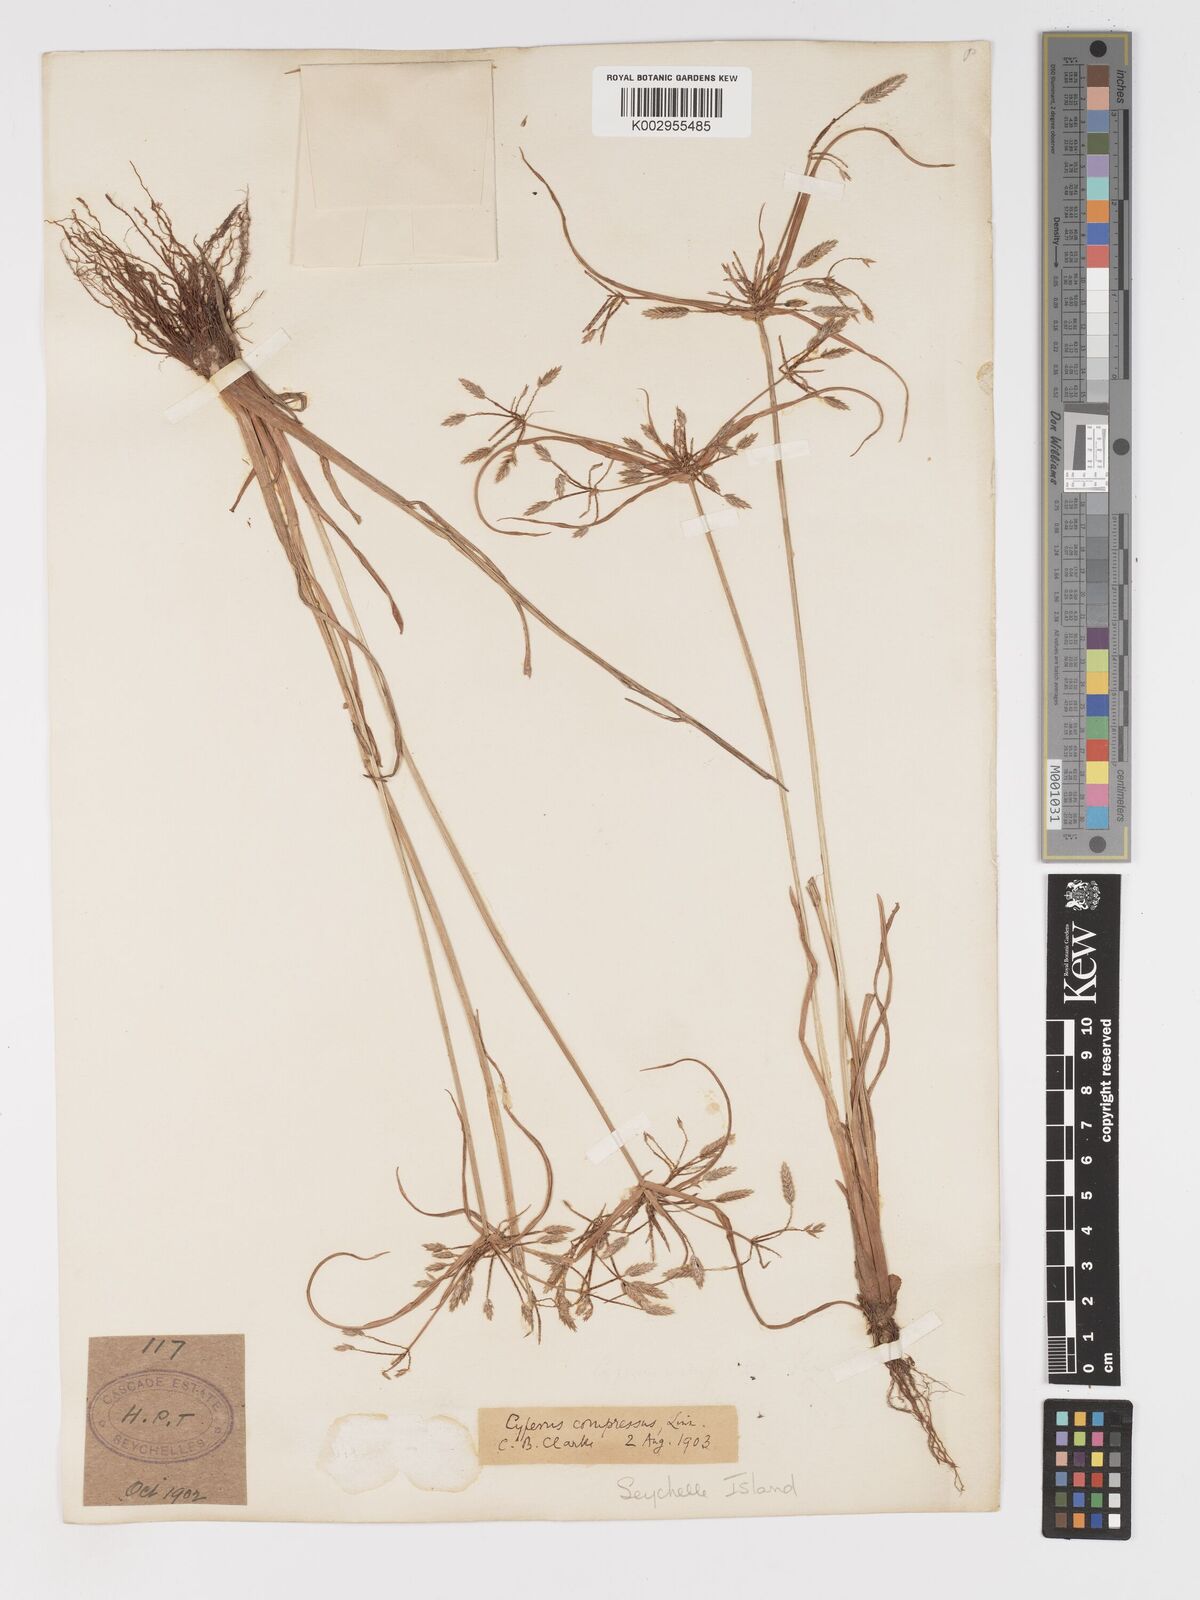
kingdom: Plantae
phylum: Tracheophyta
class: Liliopsida
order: Poales
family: Cyperaceae
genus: Cyperus
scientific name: Cyperus compressus
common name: Poorland flatsedge
